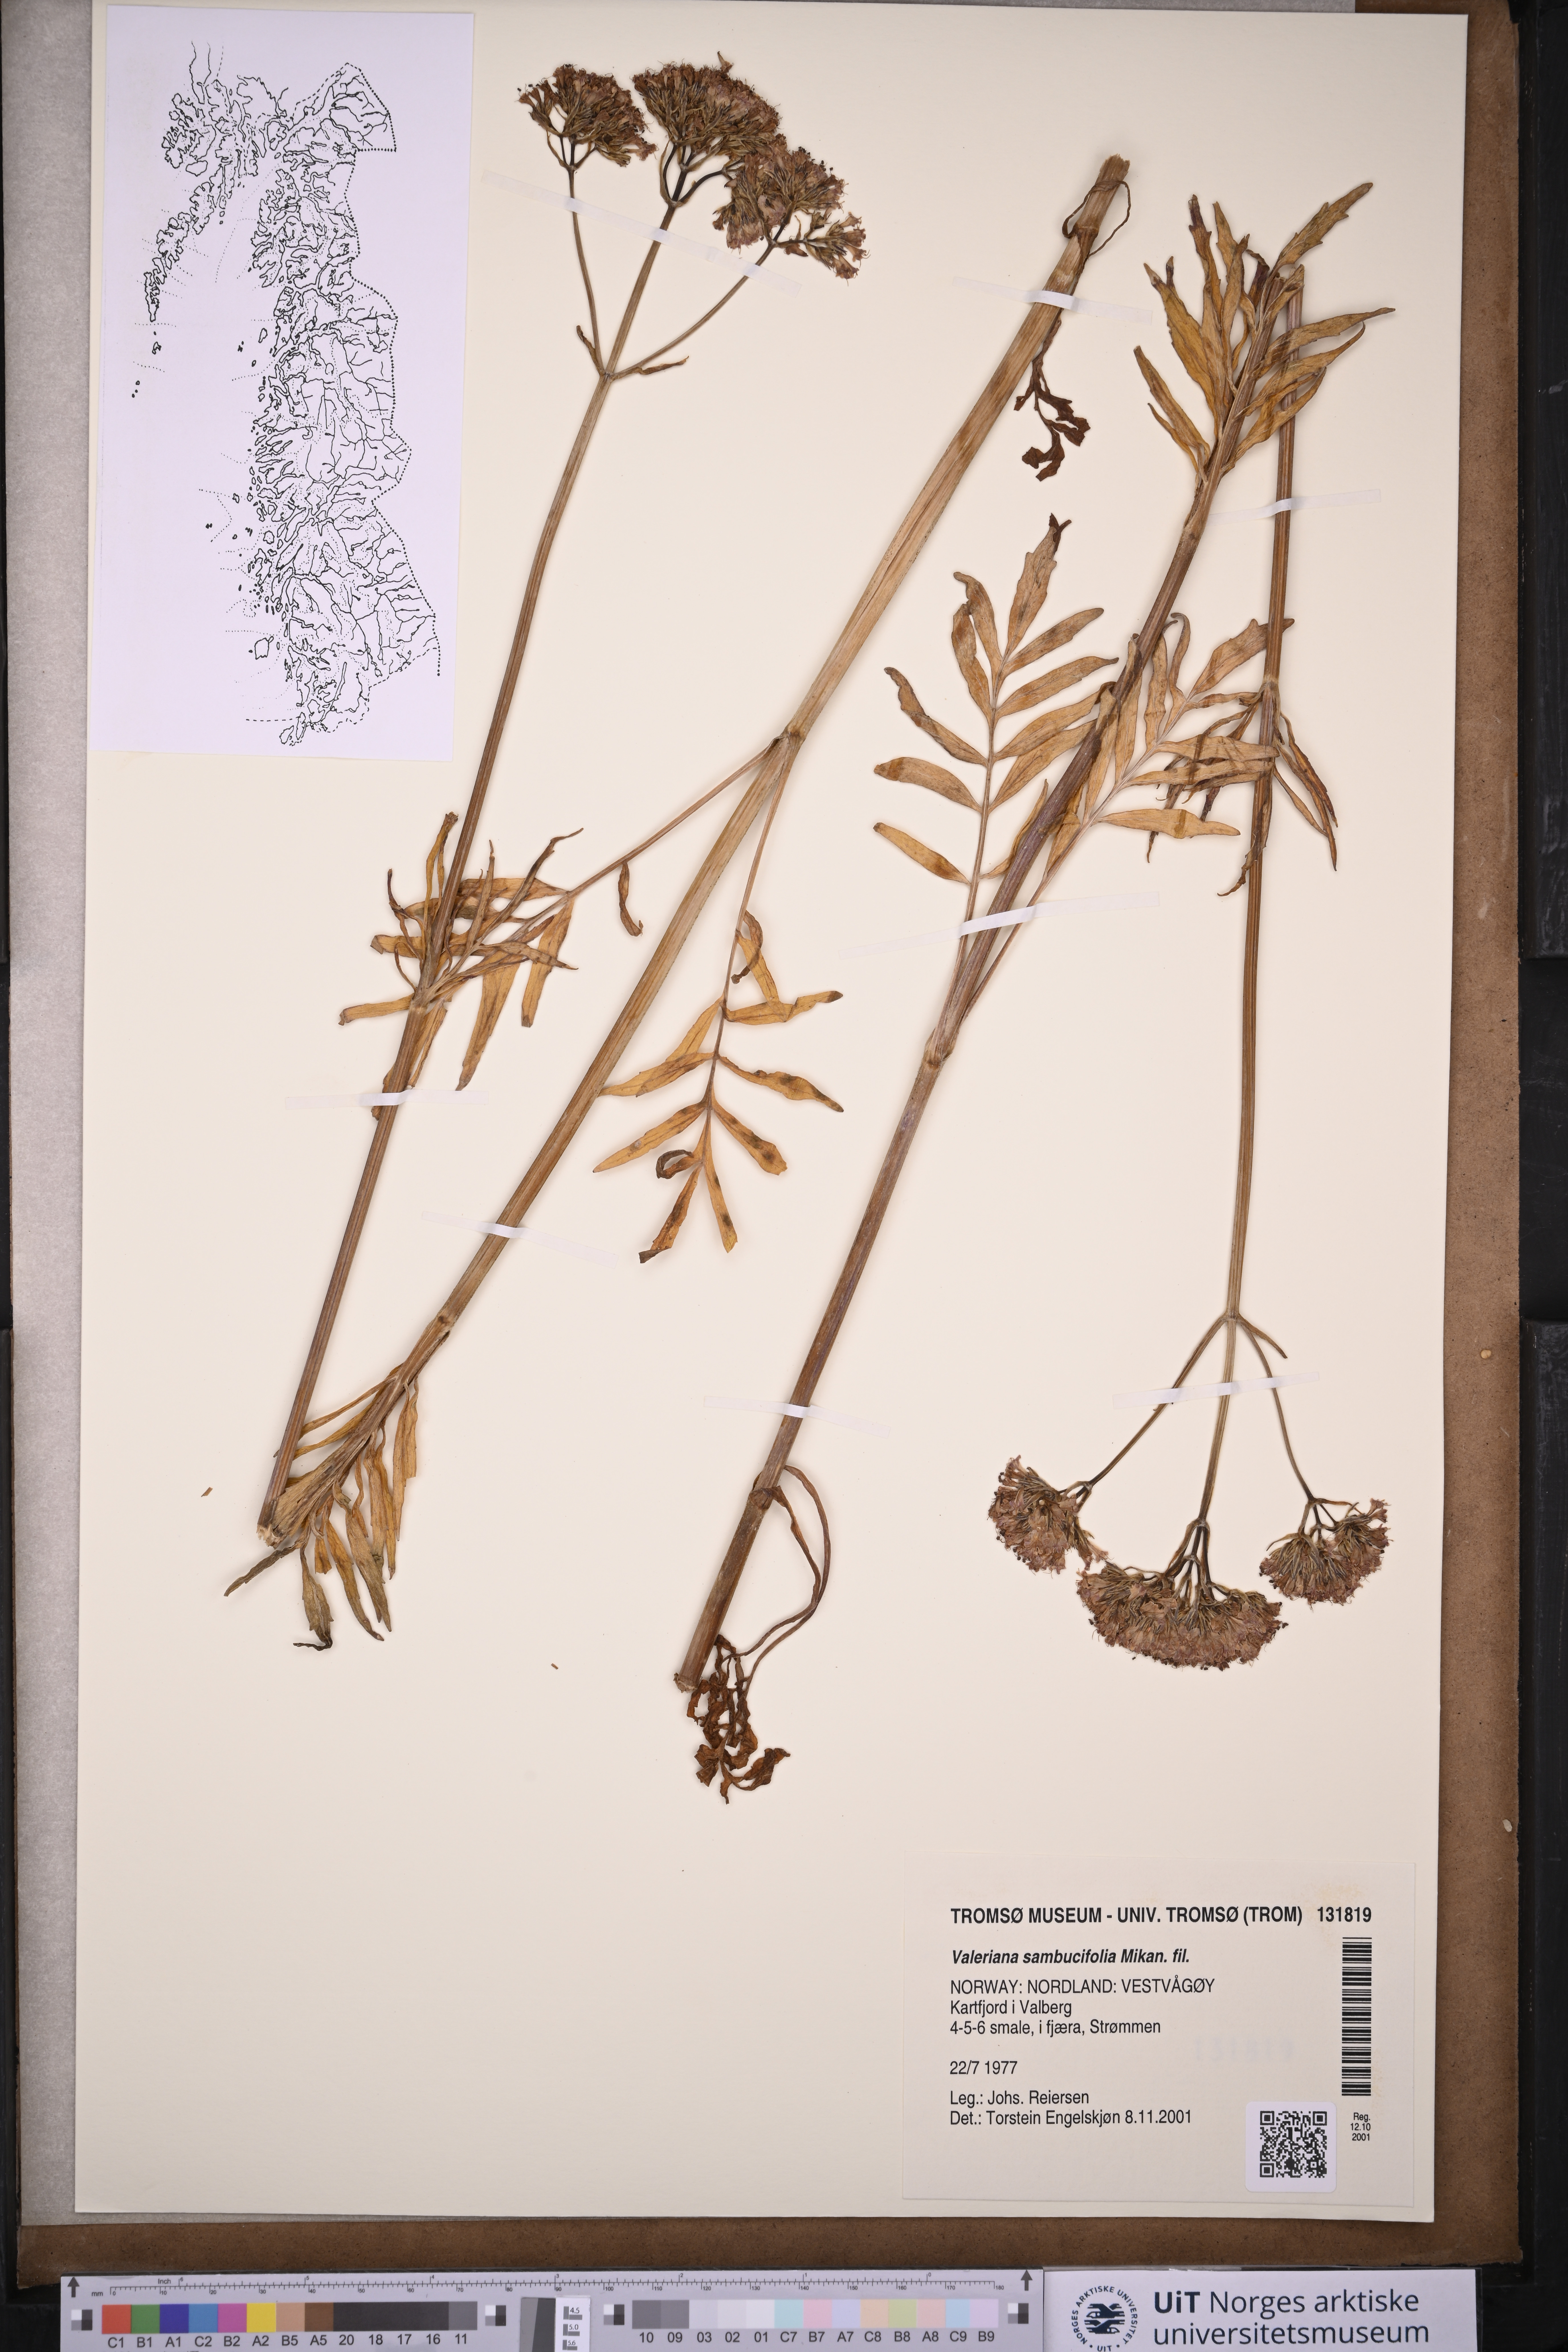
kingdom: Plantae
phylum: Tracheophyta
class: Magnoliopsida
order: Dipsacales
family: Caprifoliaceae
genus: Valeriana
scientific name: Valeriana excelsa
